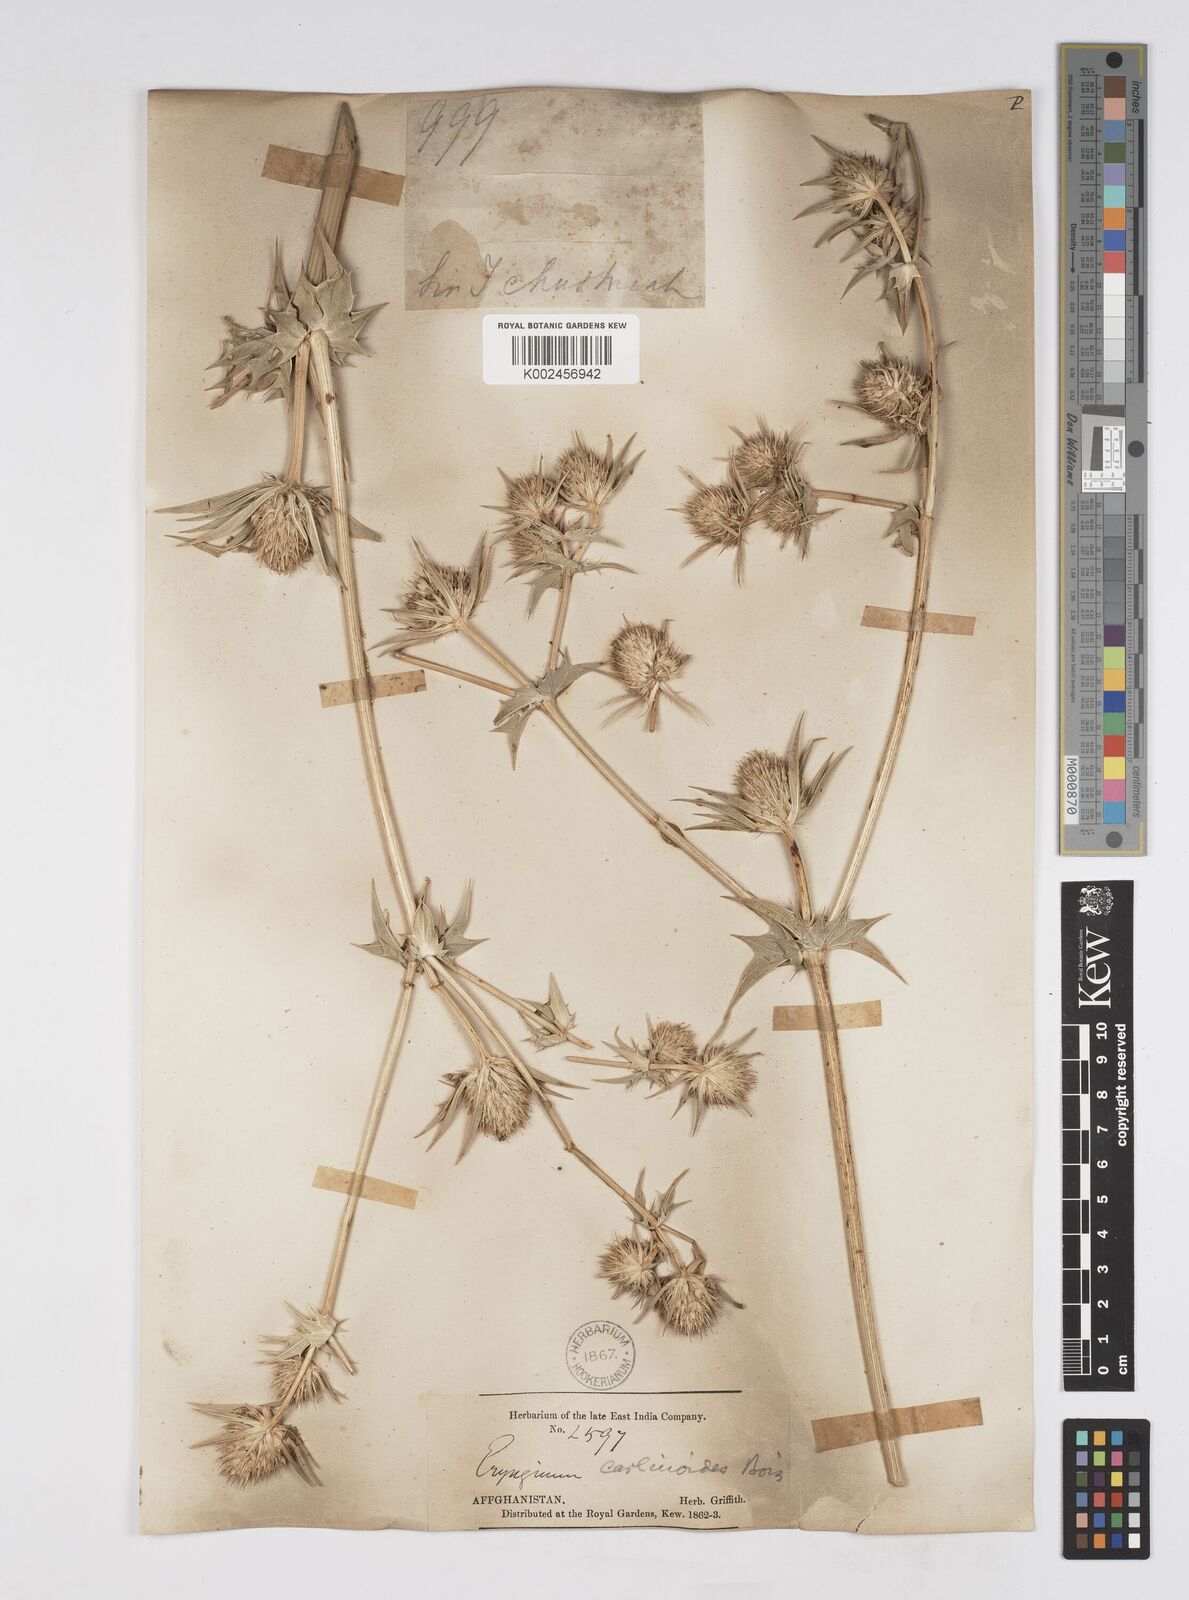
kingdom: Plantae
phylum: Tracheophyta
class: Magnoliopsida
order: Apiales
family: Apiaceae
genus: Eryngium
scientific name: Eryngium
